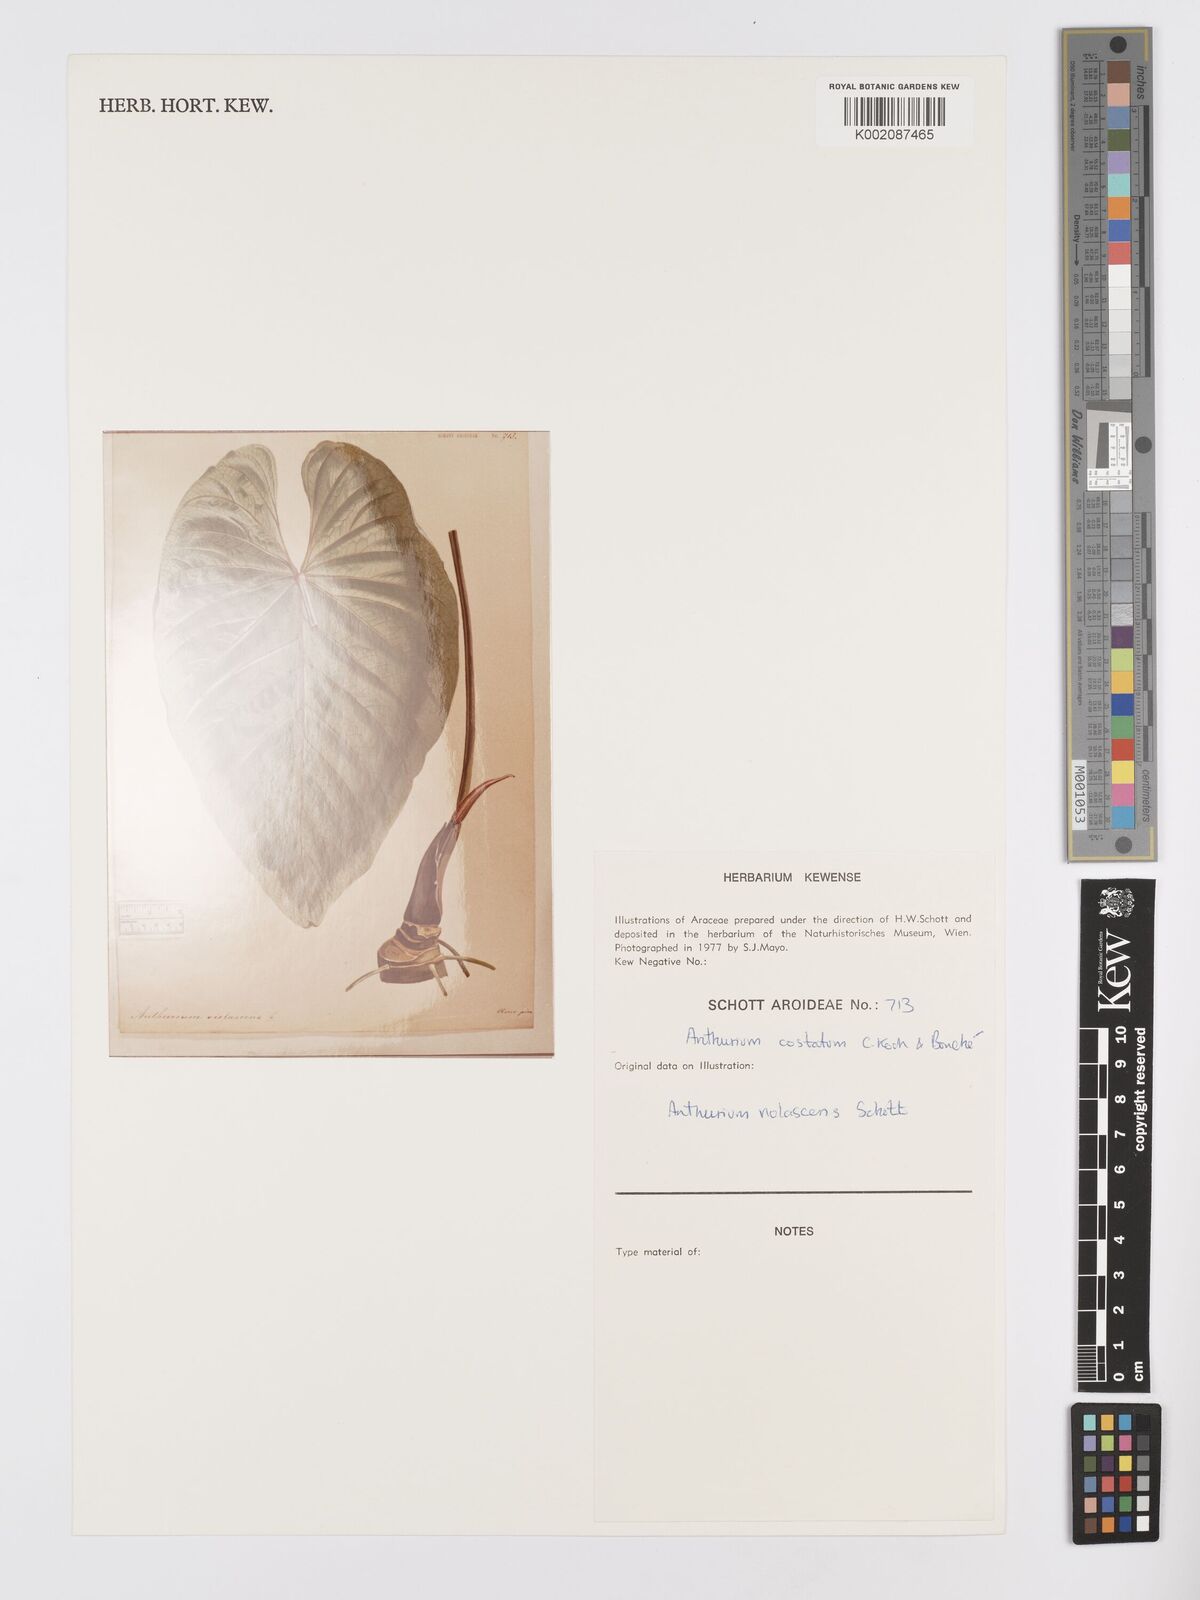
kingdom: Plantae
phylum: Tracheophyta
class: Liliopsida
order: Alismatales
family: Araceae
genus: Anthurium
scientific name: Anthurium macrophyllum
